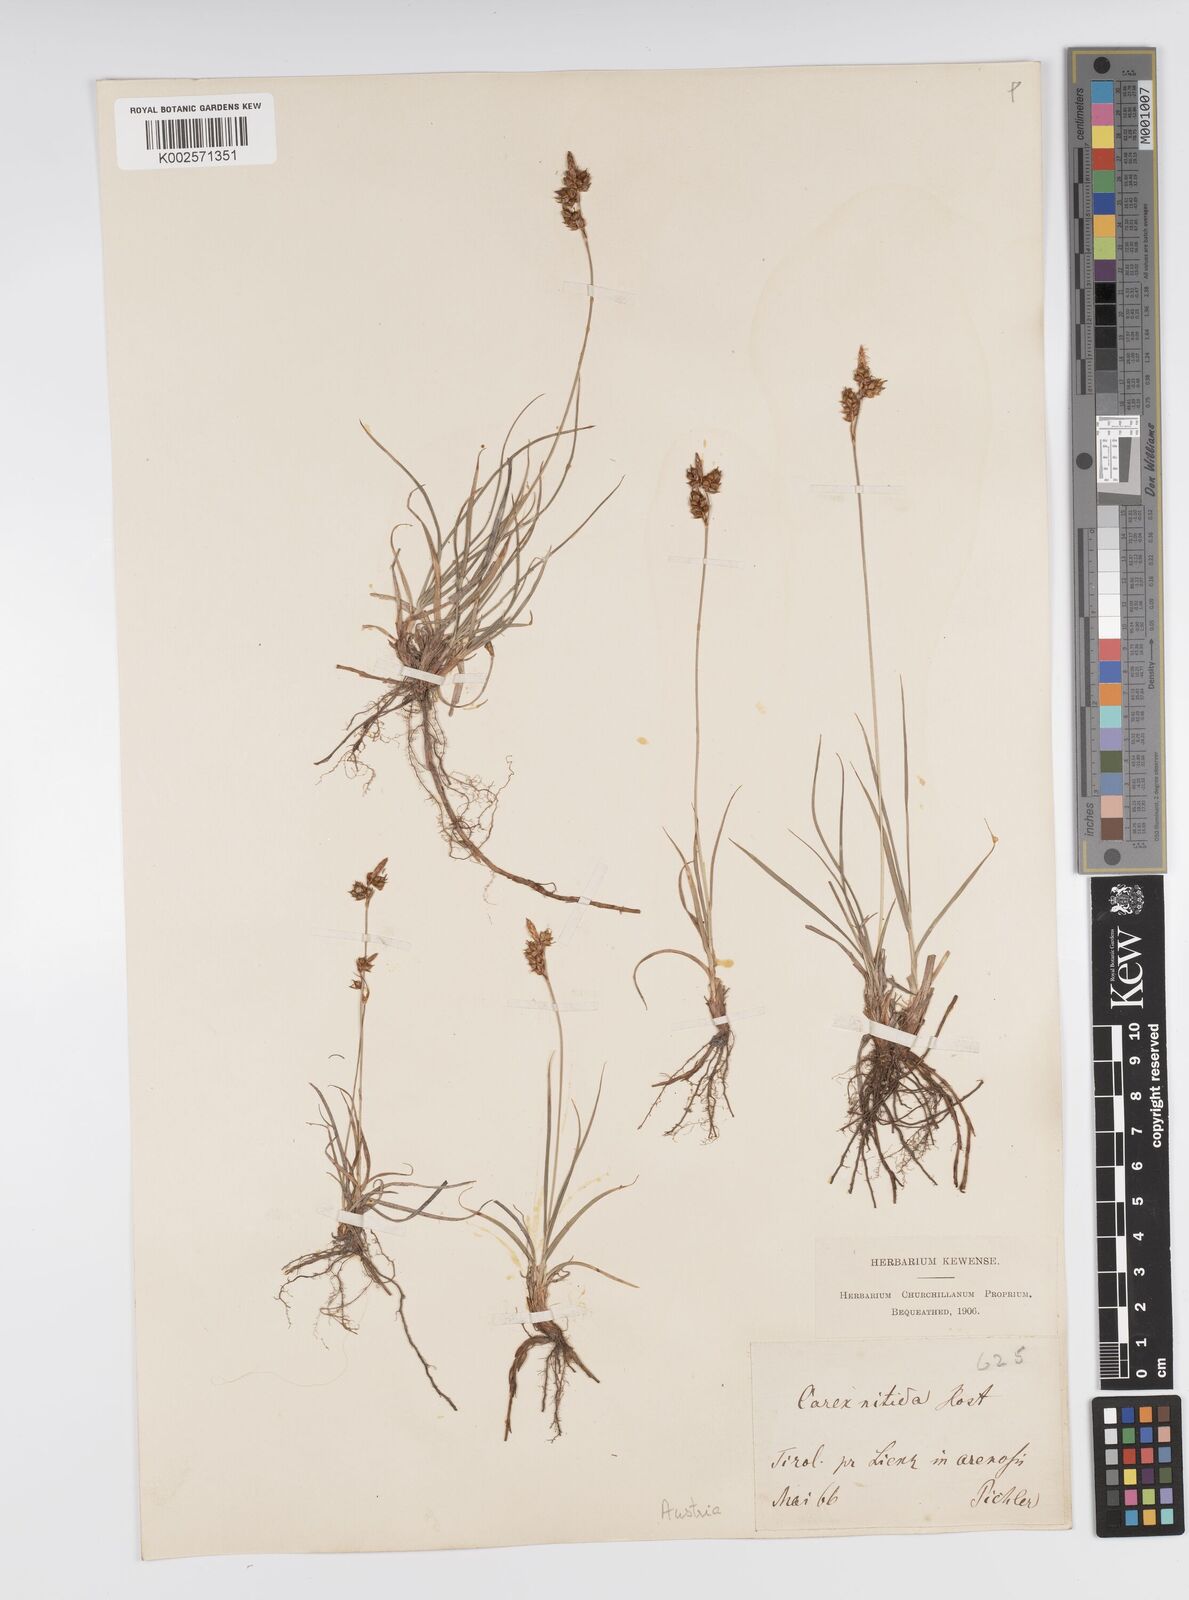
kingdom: Plantae
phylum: Tracheophyta
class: Liliopsida
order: Poales
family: Cyperaceae
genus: Carex
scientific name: Carex liparocarpos
